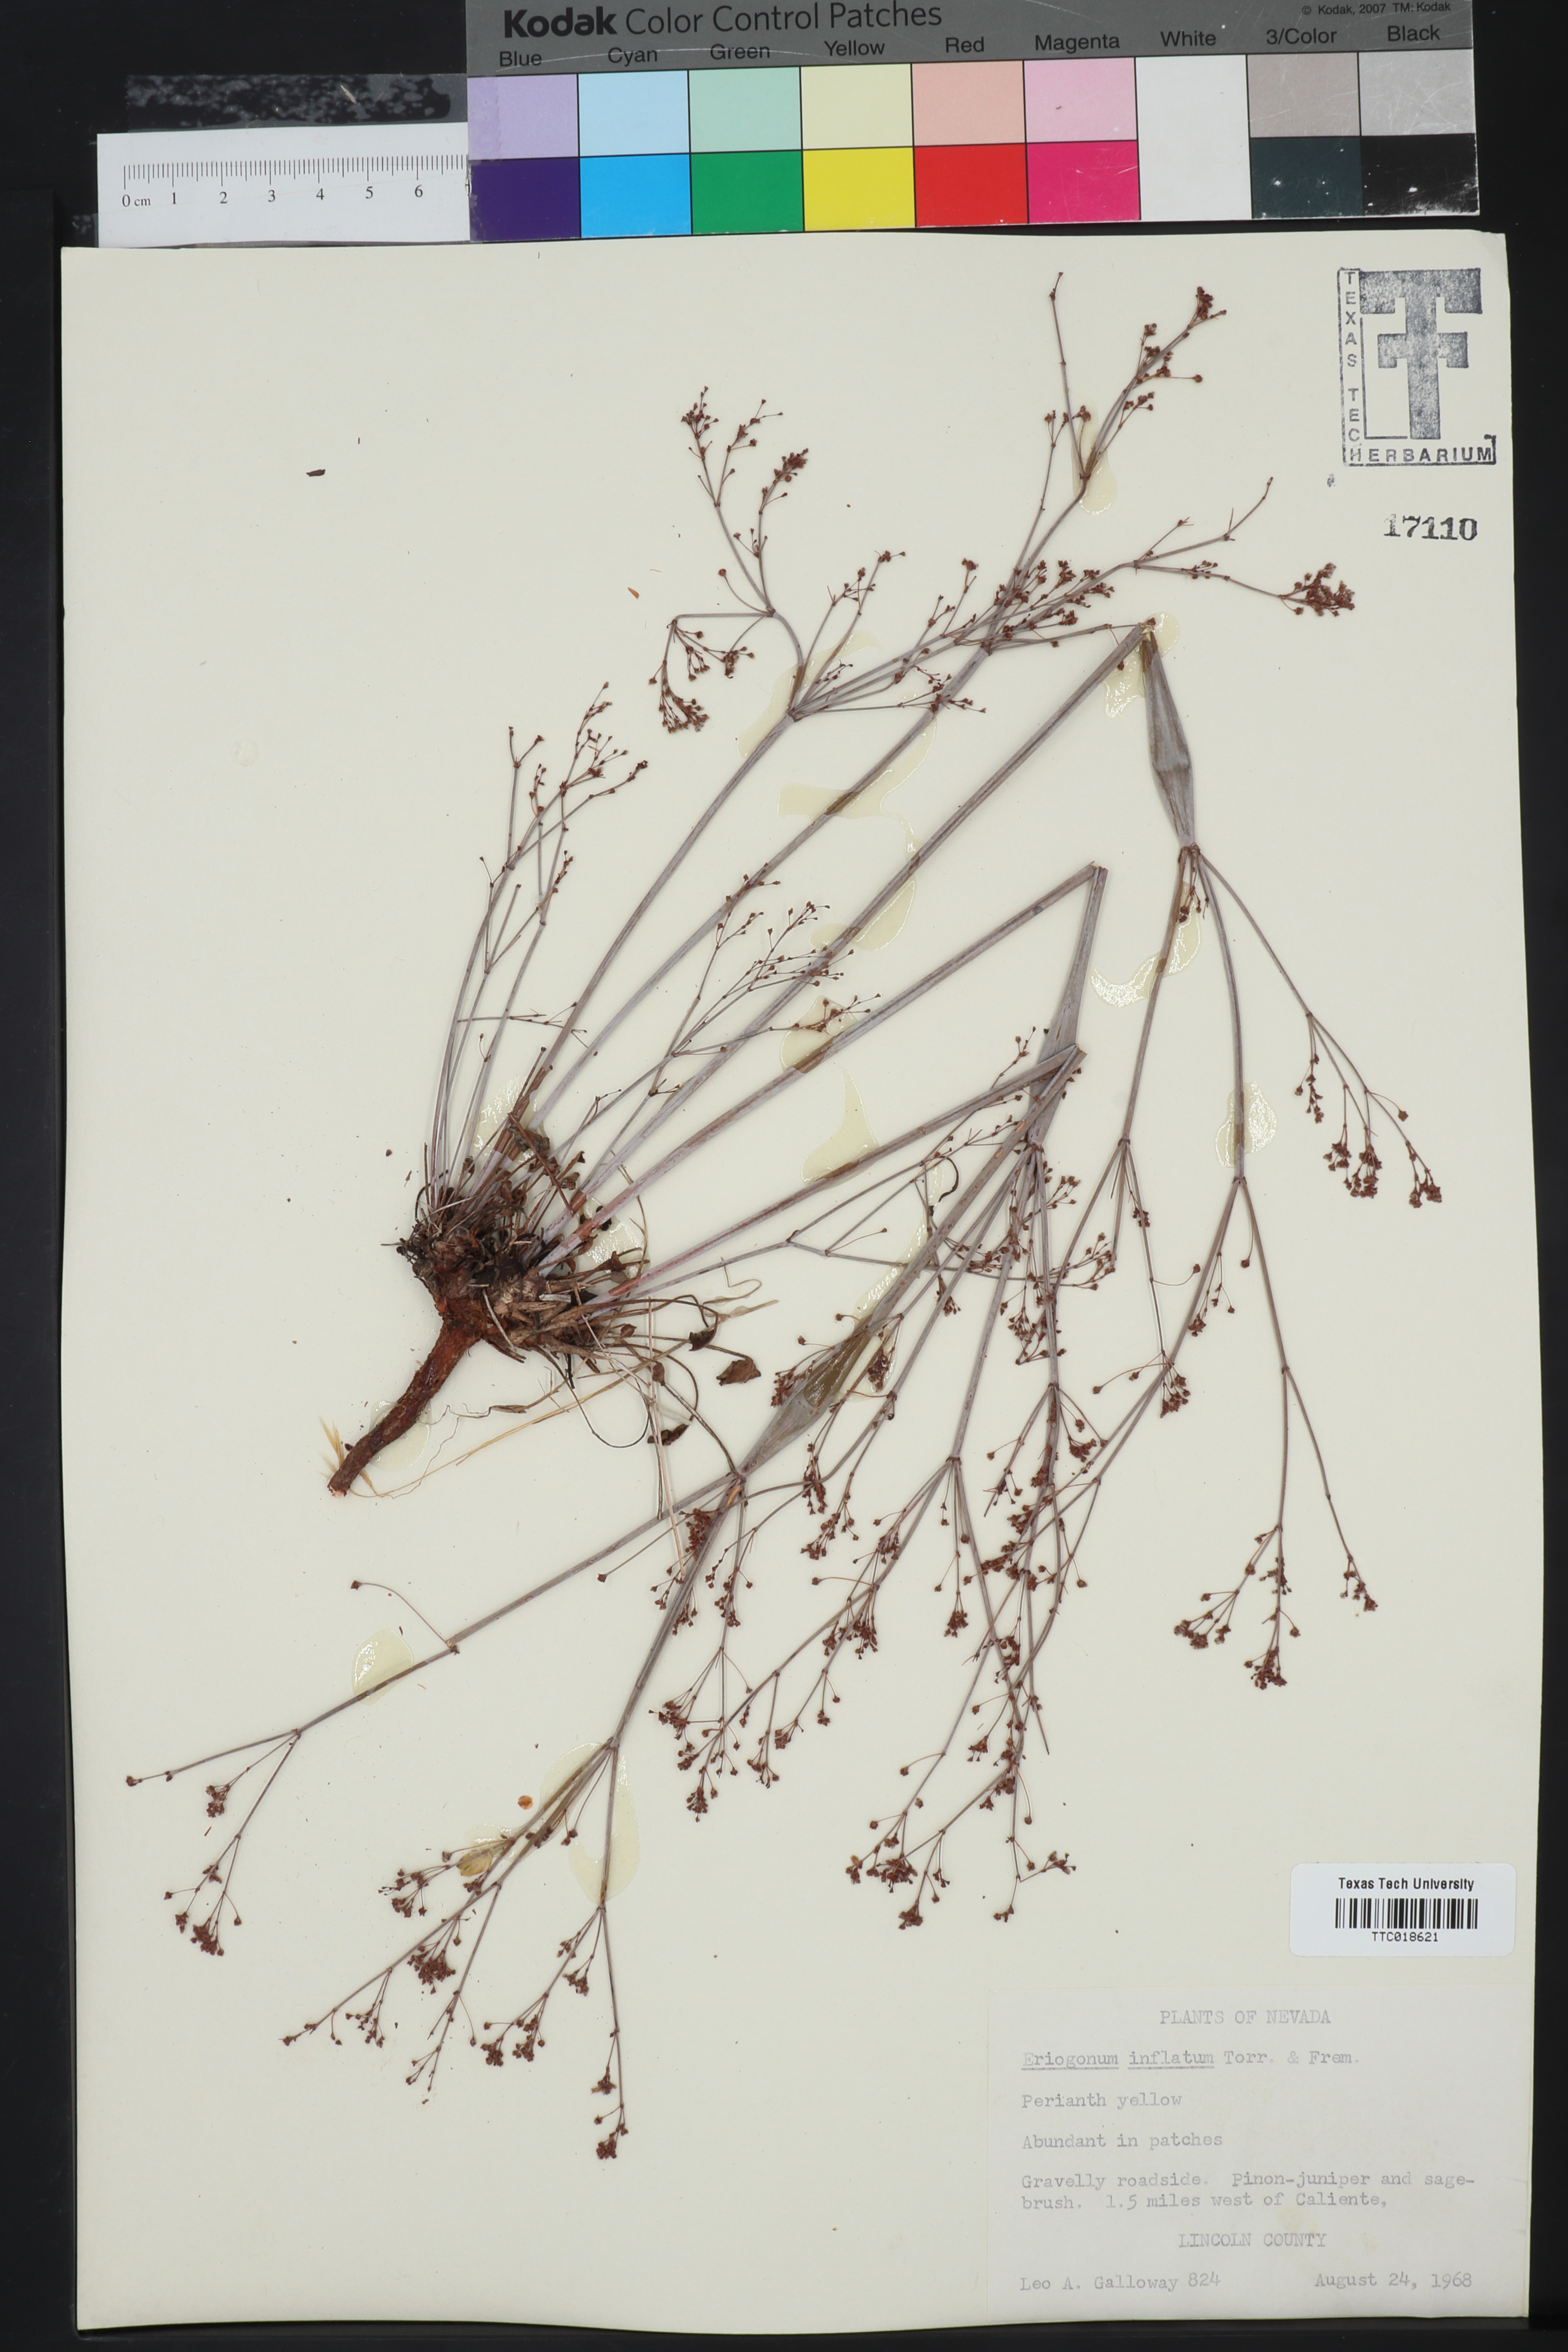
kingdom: Plantae
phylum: Tracheophyta
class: Magnoliopsida
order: Caryophyllales
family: Polygonaceae
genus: Eriogonum
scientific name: Eriogonum inflatum
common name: Desert trumpet
